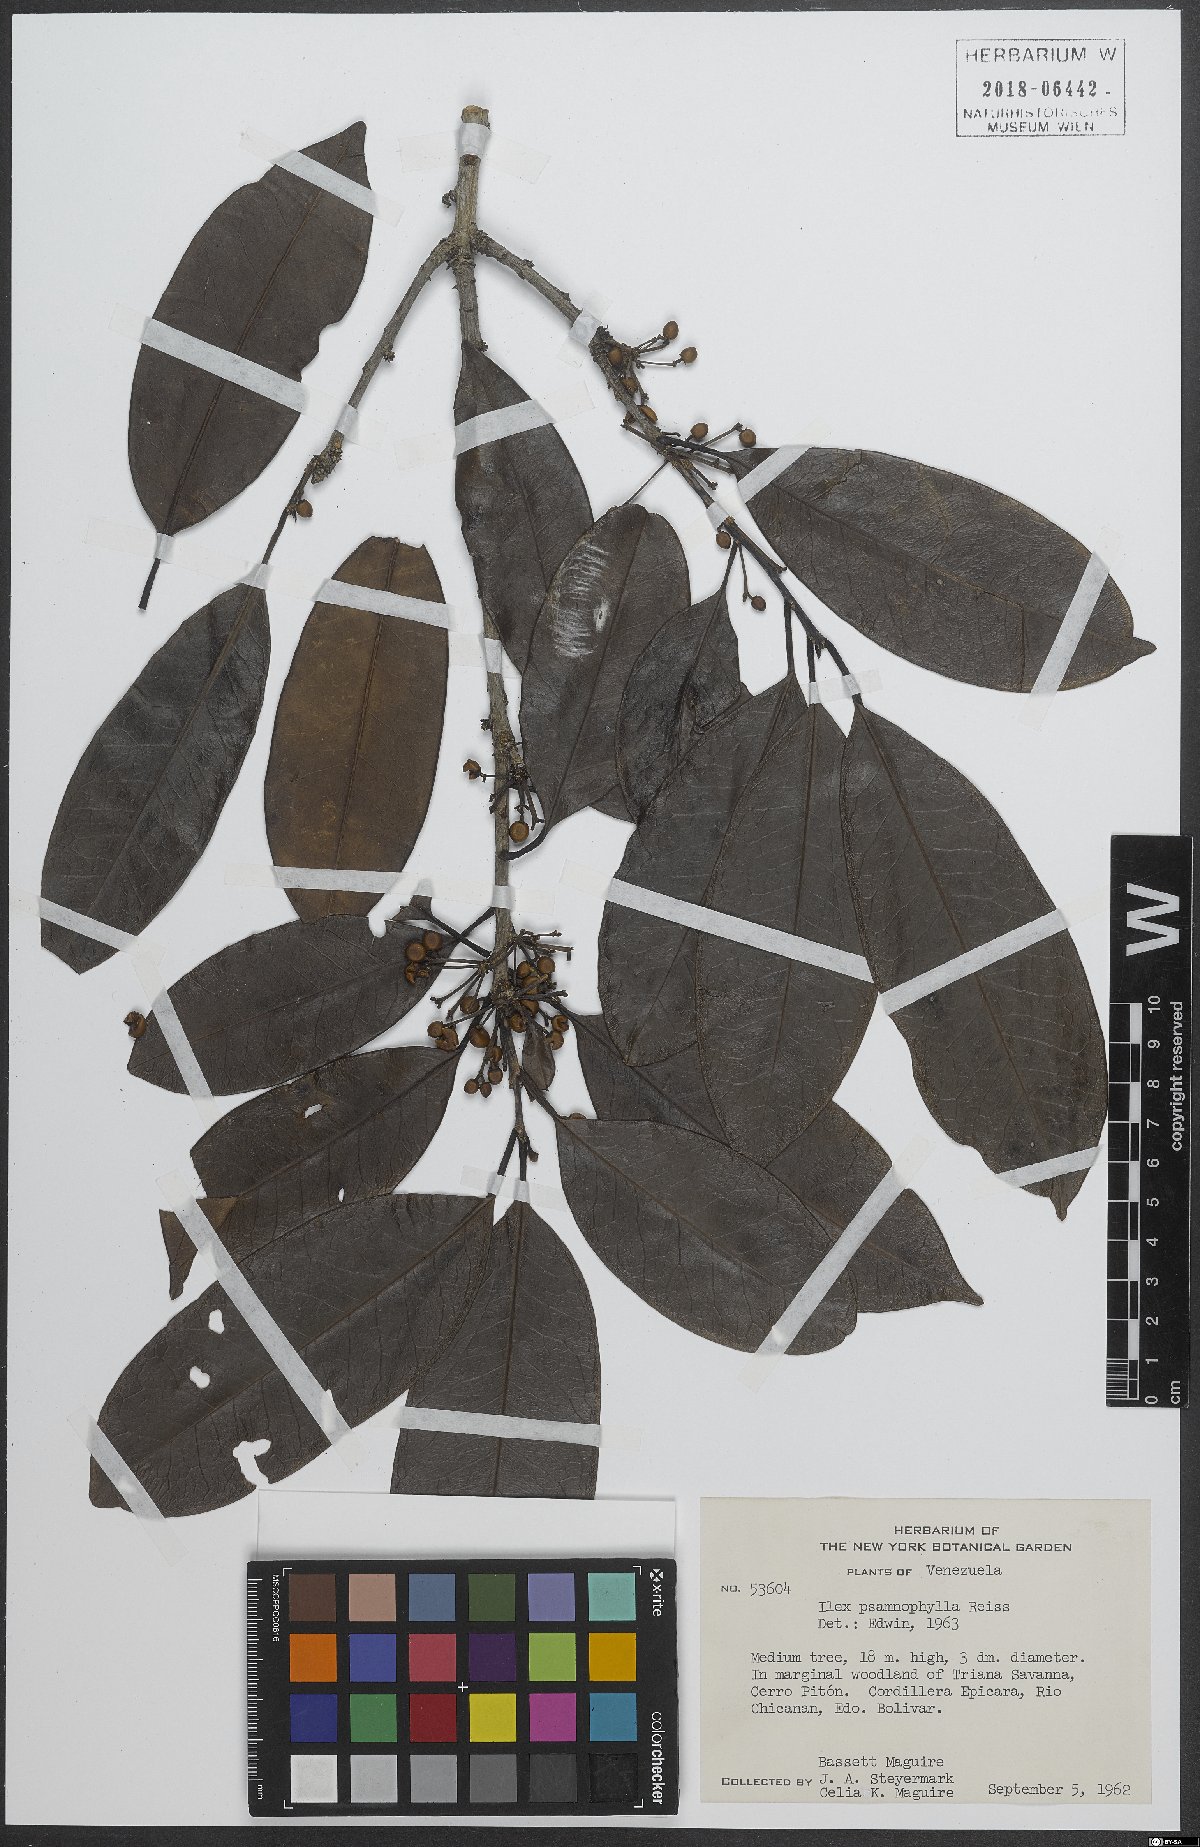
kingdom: Plantae
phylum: Tracheophyta
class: Magnoliopsida
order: Aquifoliales
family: Aquifoliaceae
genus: Ilex
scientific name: Ilex psammophila
